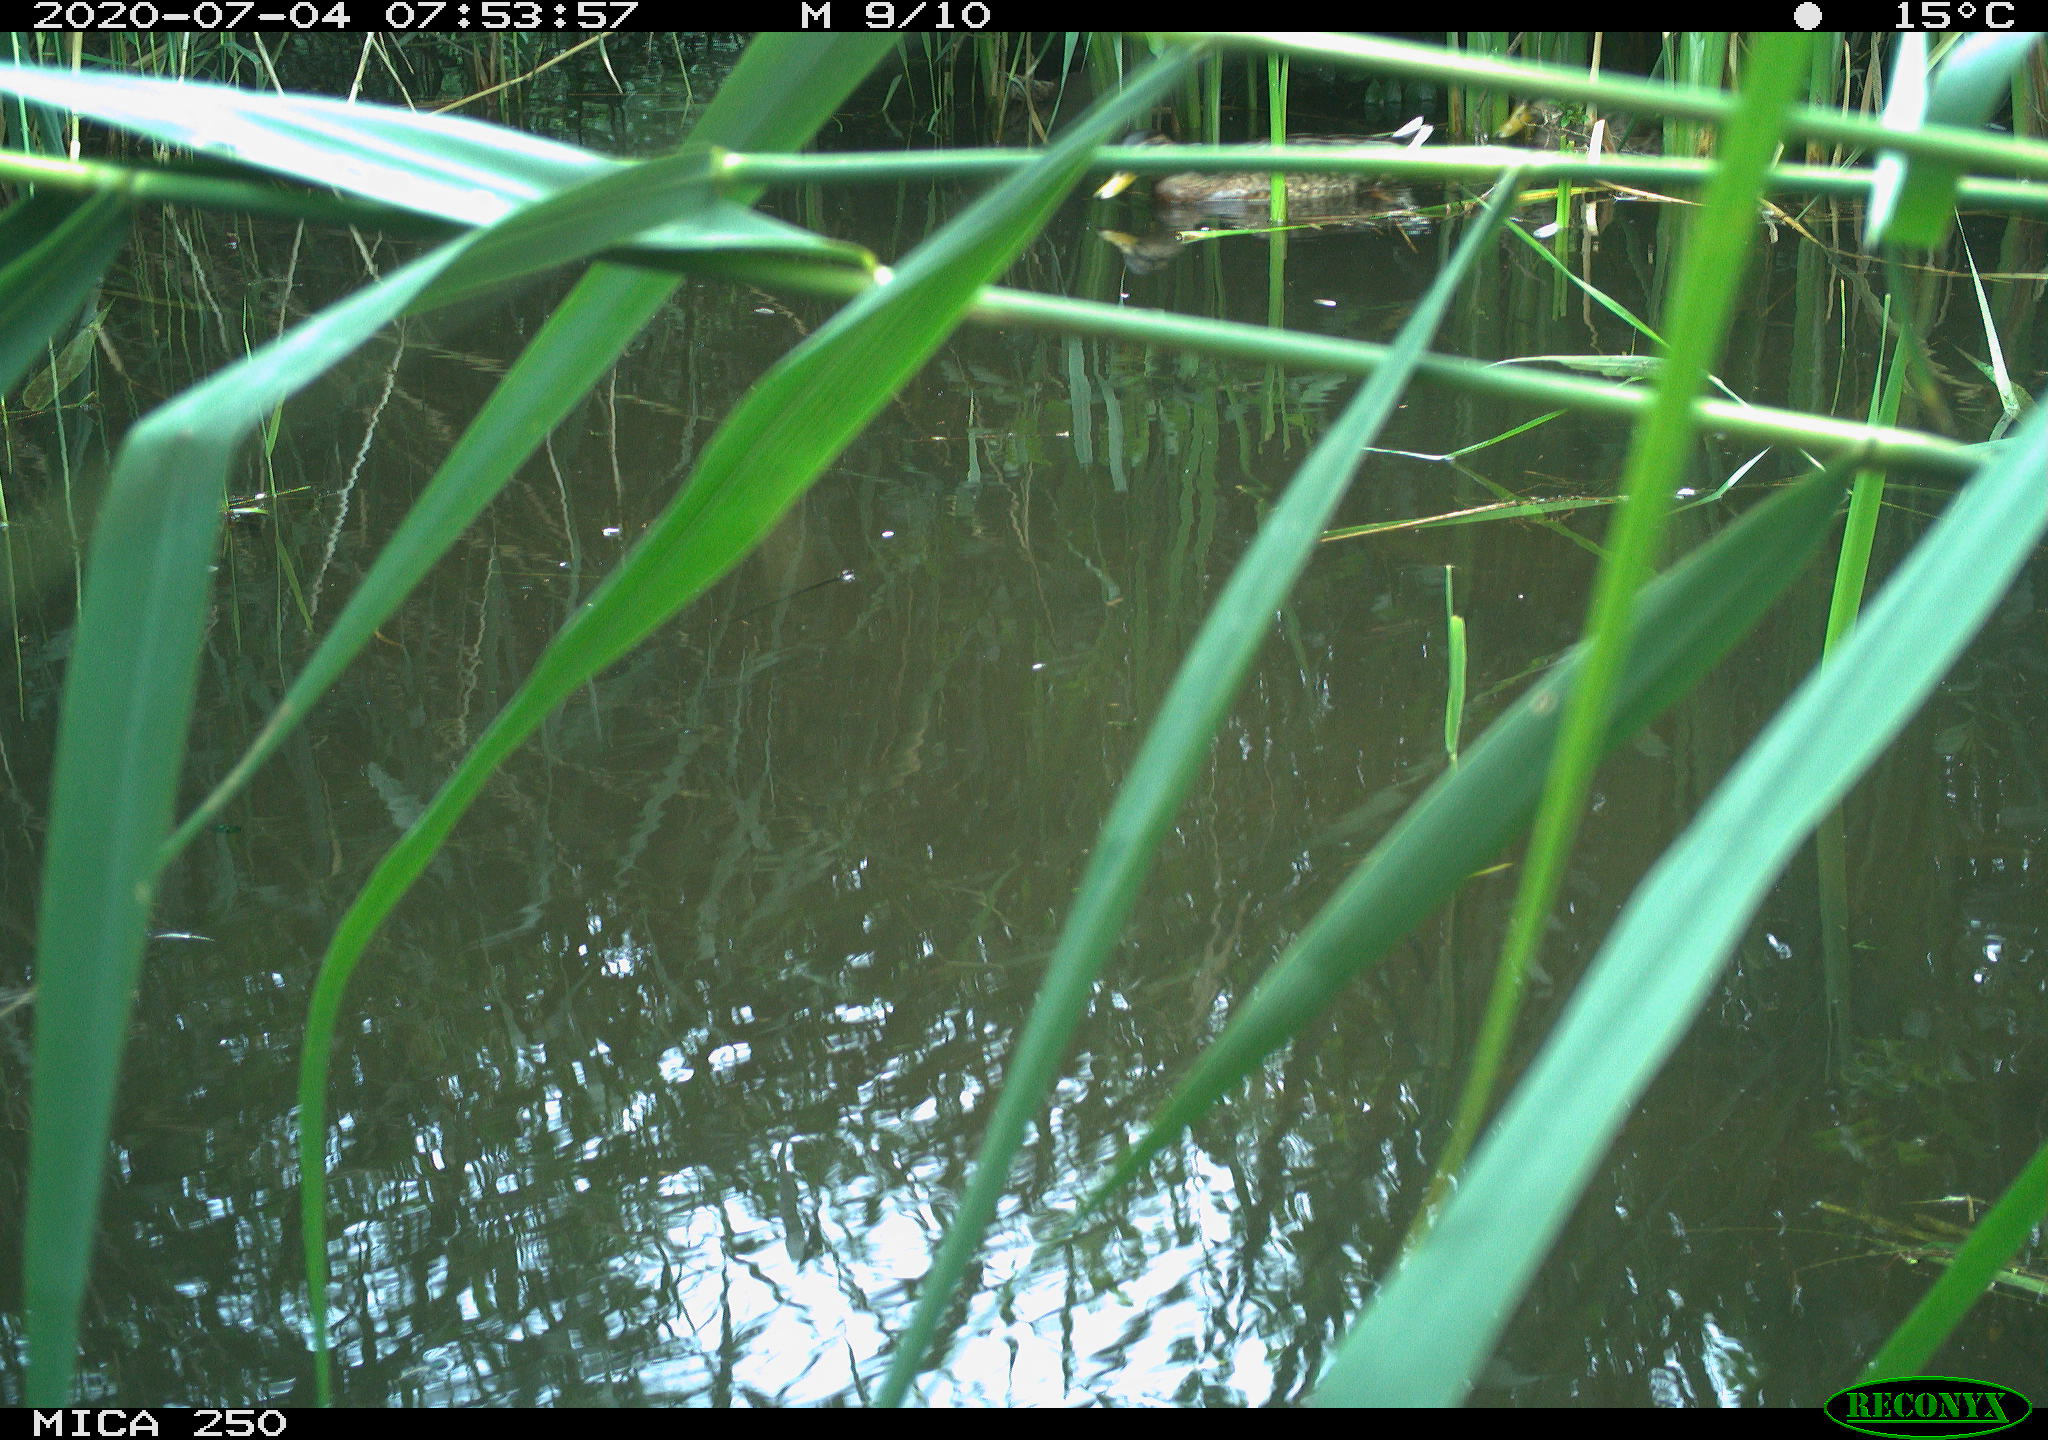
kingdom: Animalia
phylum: Chordata
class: Aves
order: Anseriformes
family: Anatidae
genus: Anas
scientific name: Anas platyrhynchos
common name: Mallard
